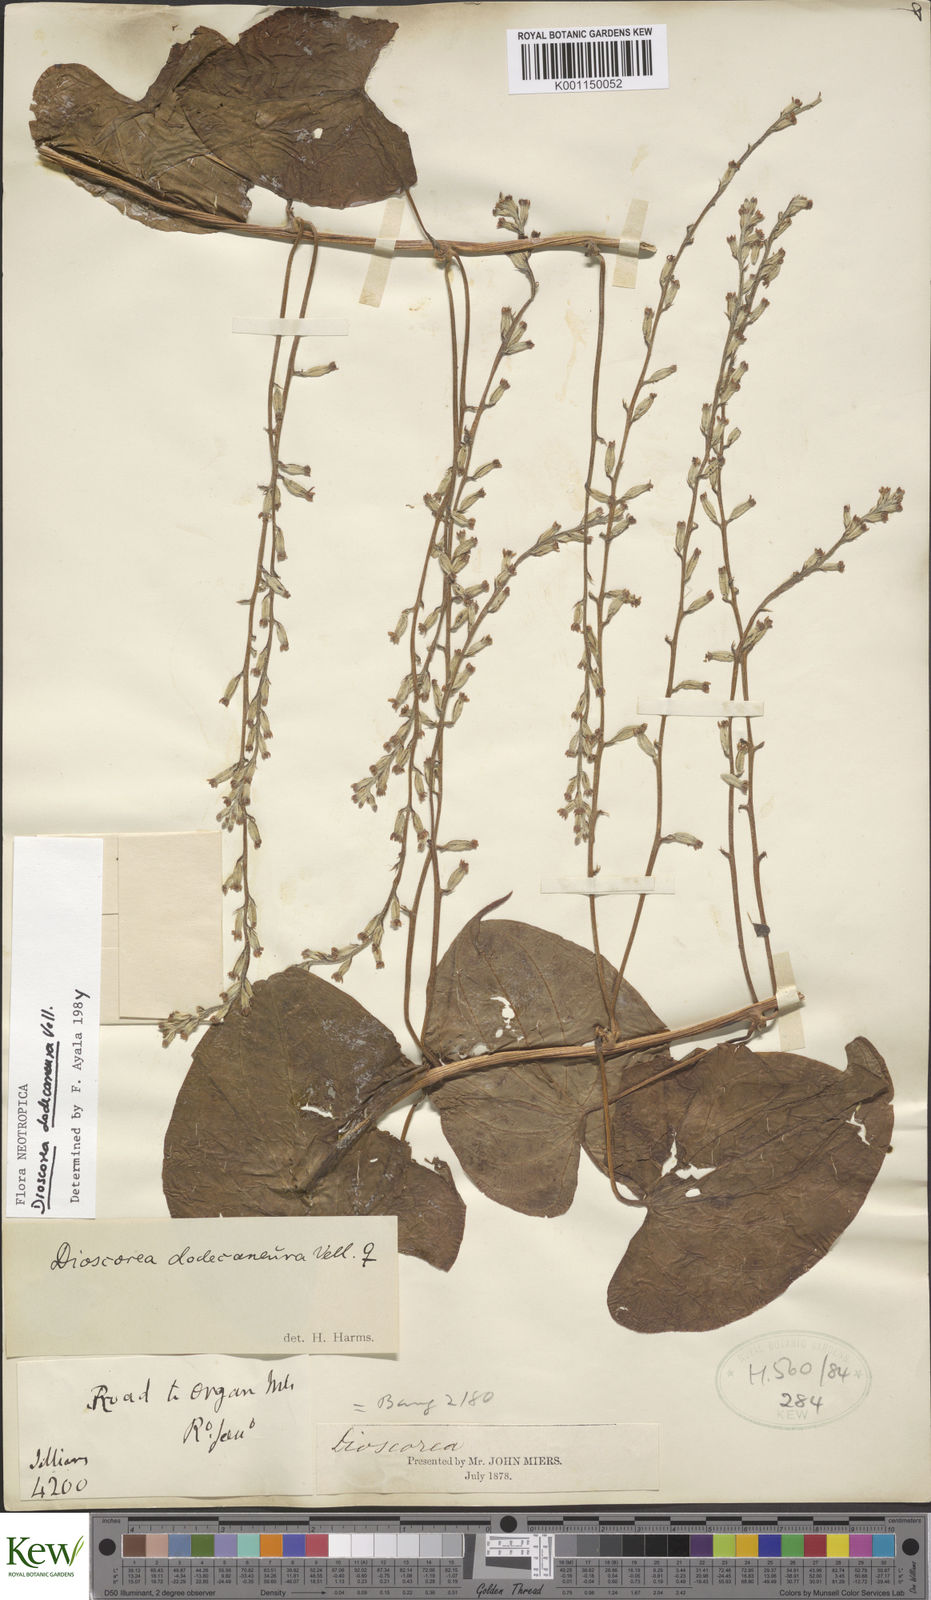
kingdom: Plantae
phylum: Tracheophyta
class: Liliopsida
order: Dioscoreales
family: Dioscoreaceae
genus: Dioscorea
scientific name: Dioscorea dodecaneura
